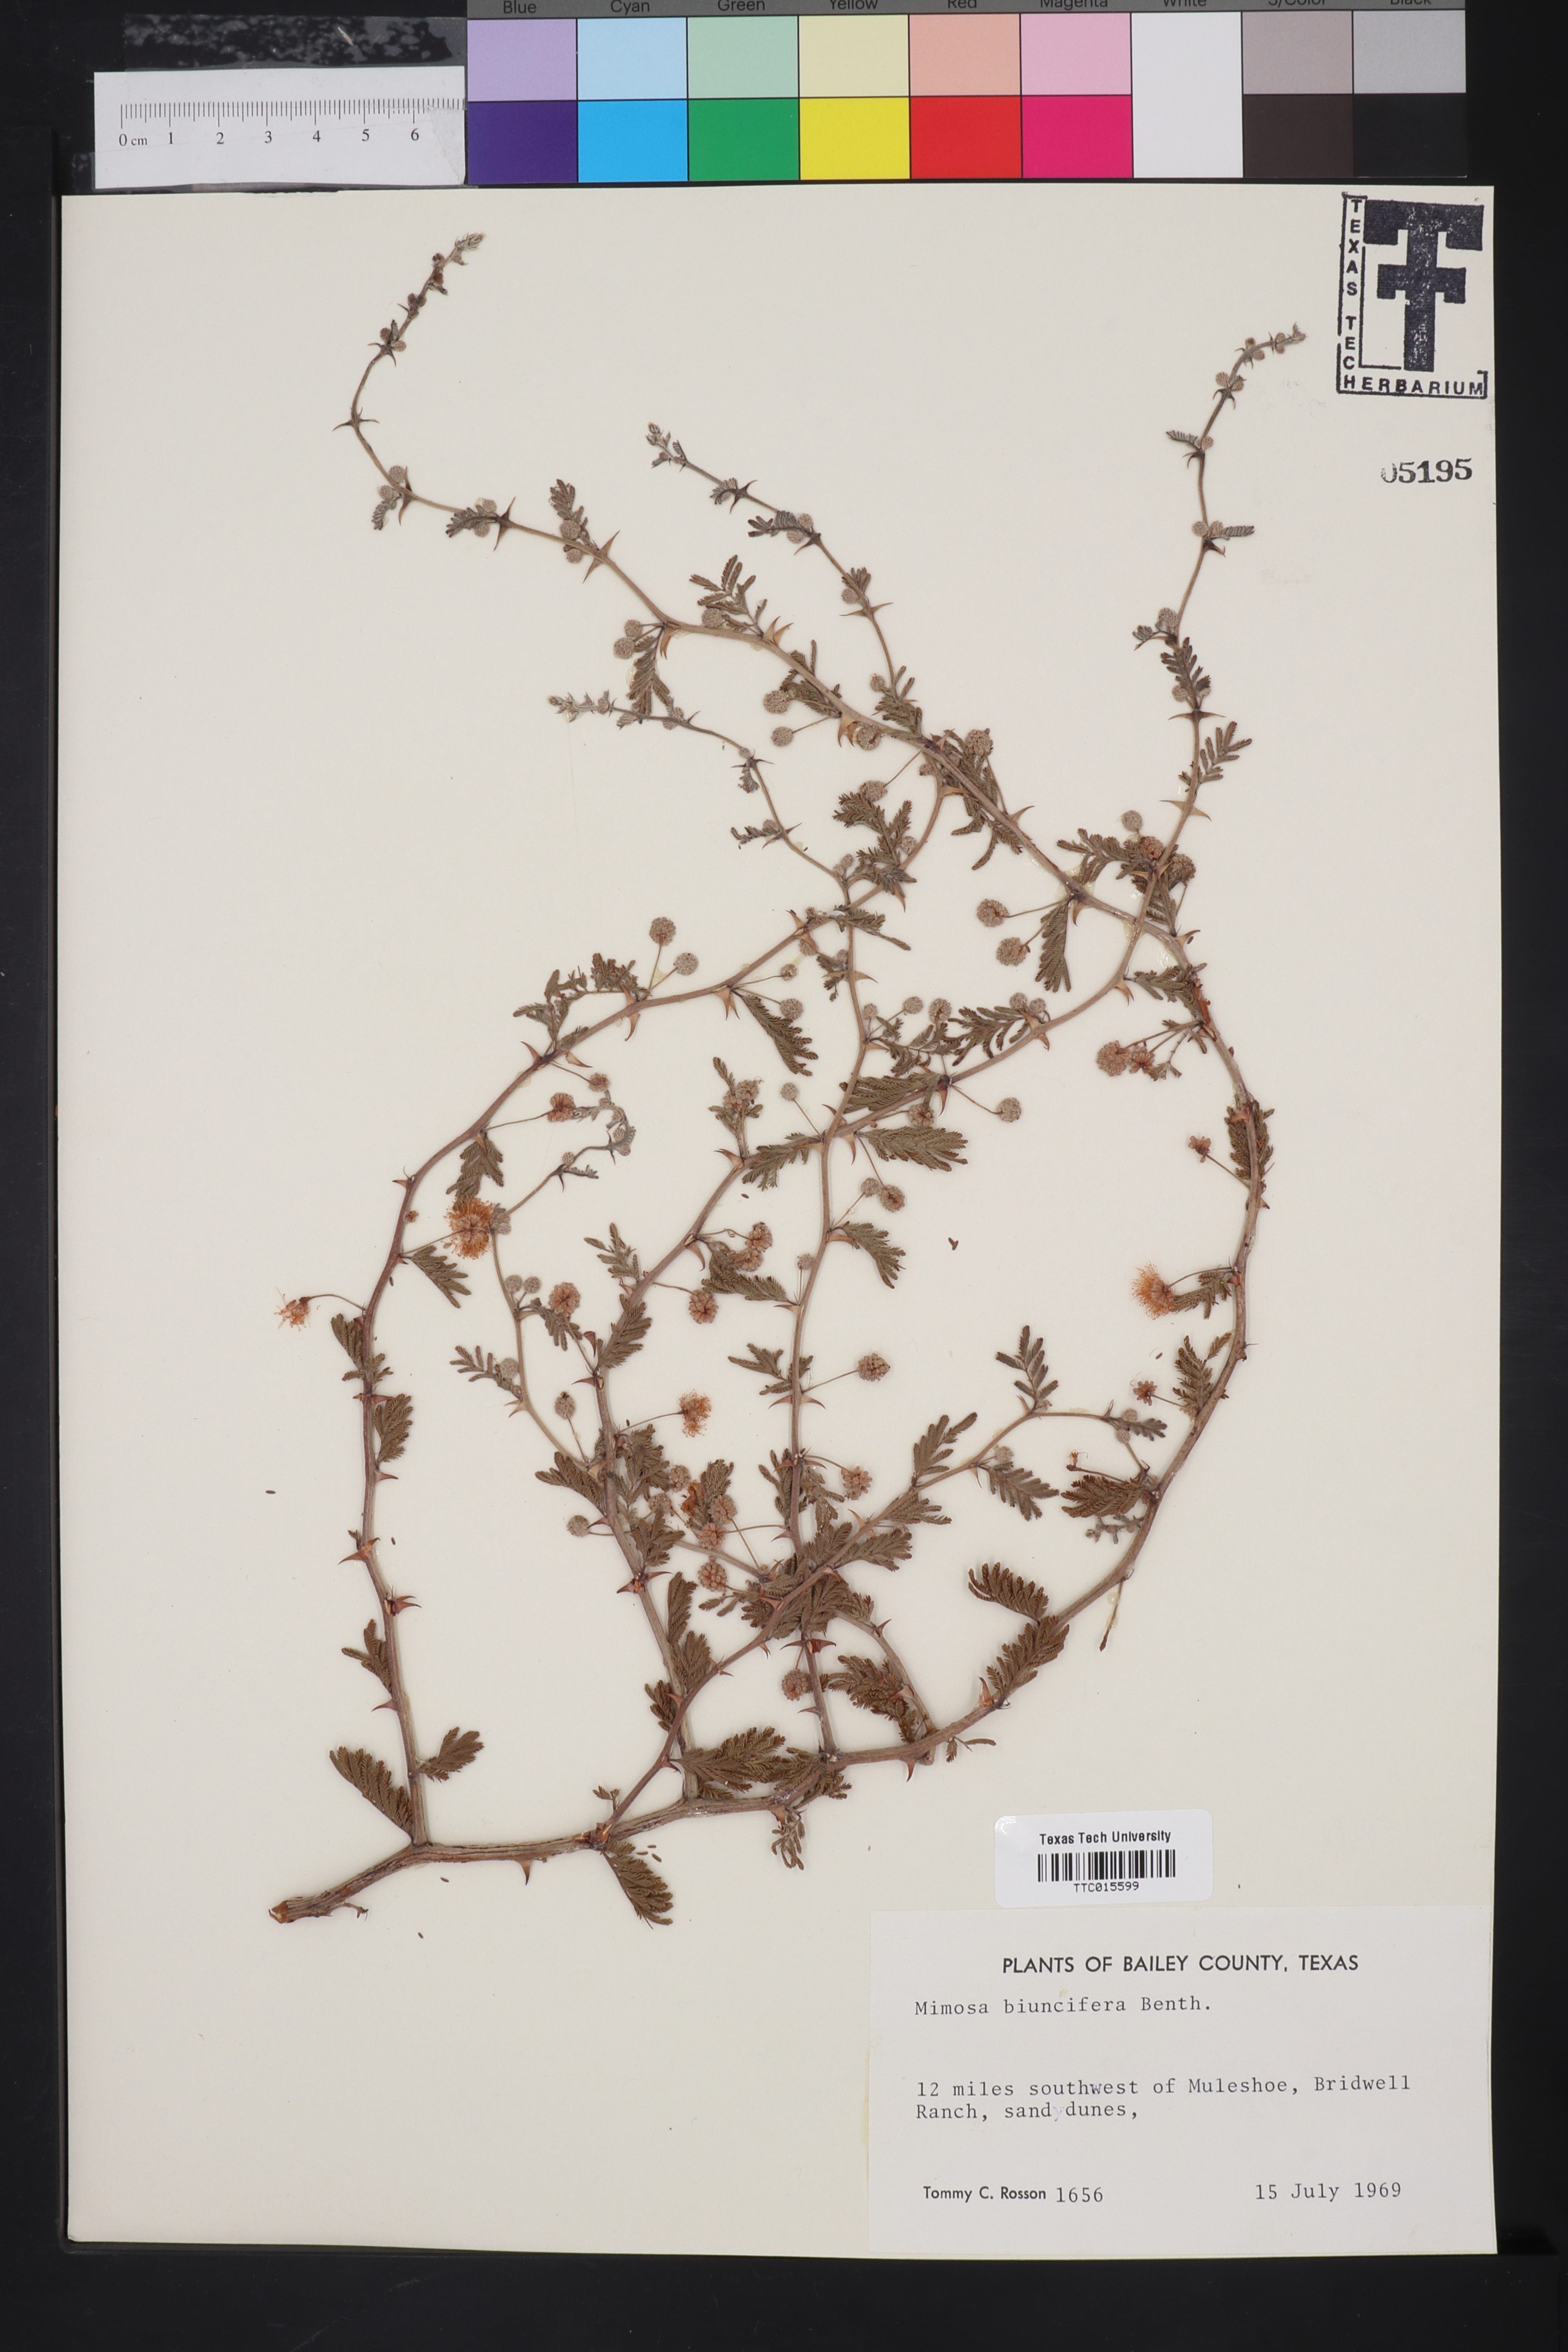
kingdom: Plantae
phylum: Tracheophyta
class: Magnoliopsida
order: Fabales
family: Fabaceae
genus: Mimosa
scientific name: Mimosa biuncifera
